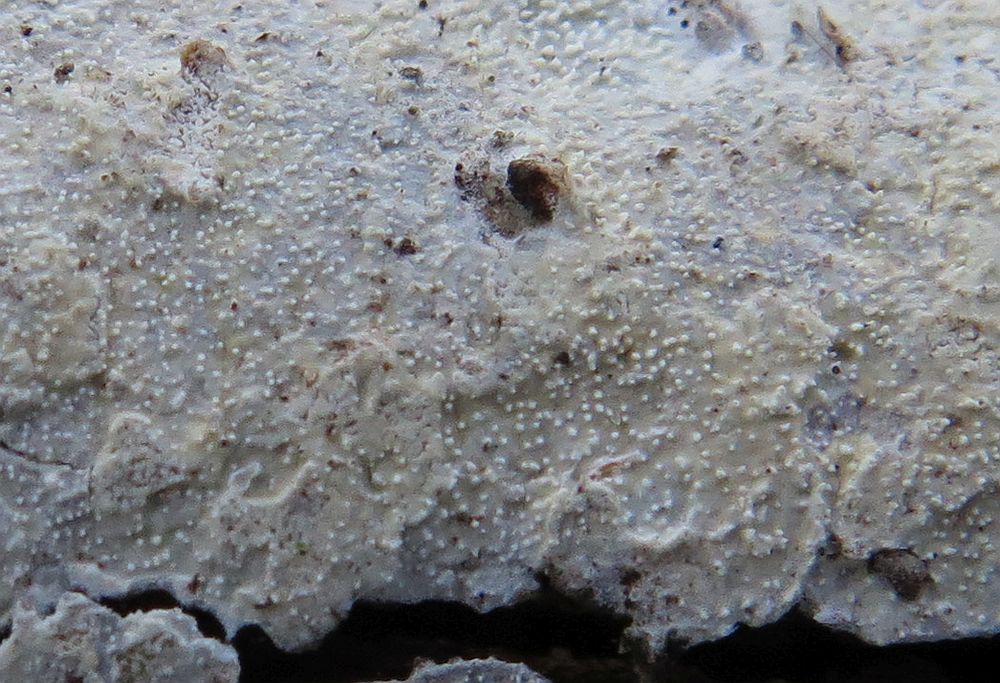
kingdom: Fungi
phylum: Basidiomycota
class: Agaricomycetes
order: Corticiales
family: Corticiaceae
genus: Lyomyces
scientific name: Lyomyces crustosus
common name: vortet hyldehinde
